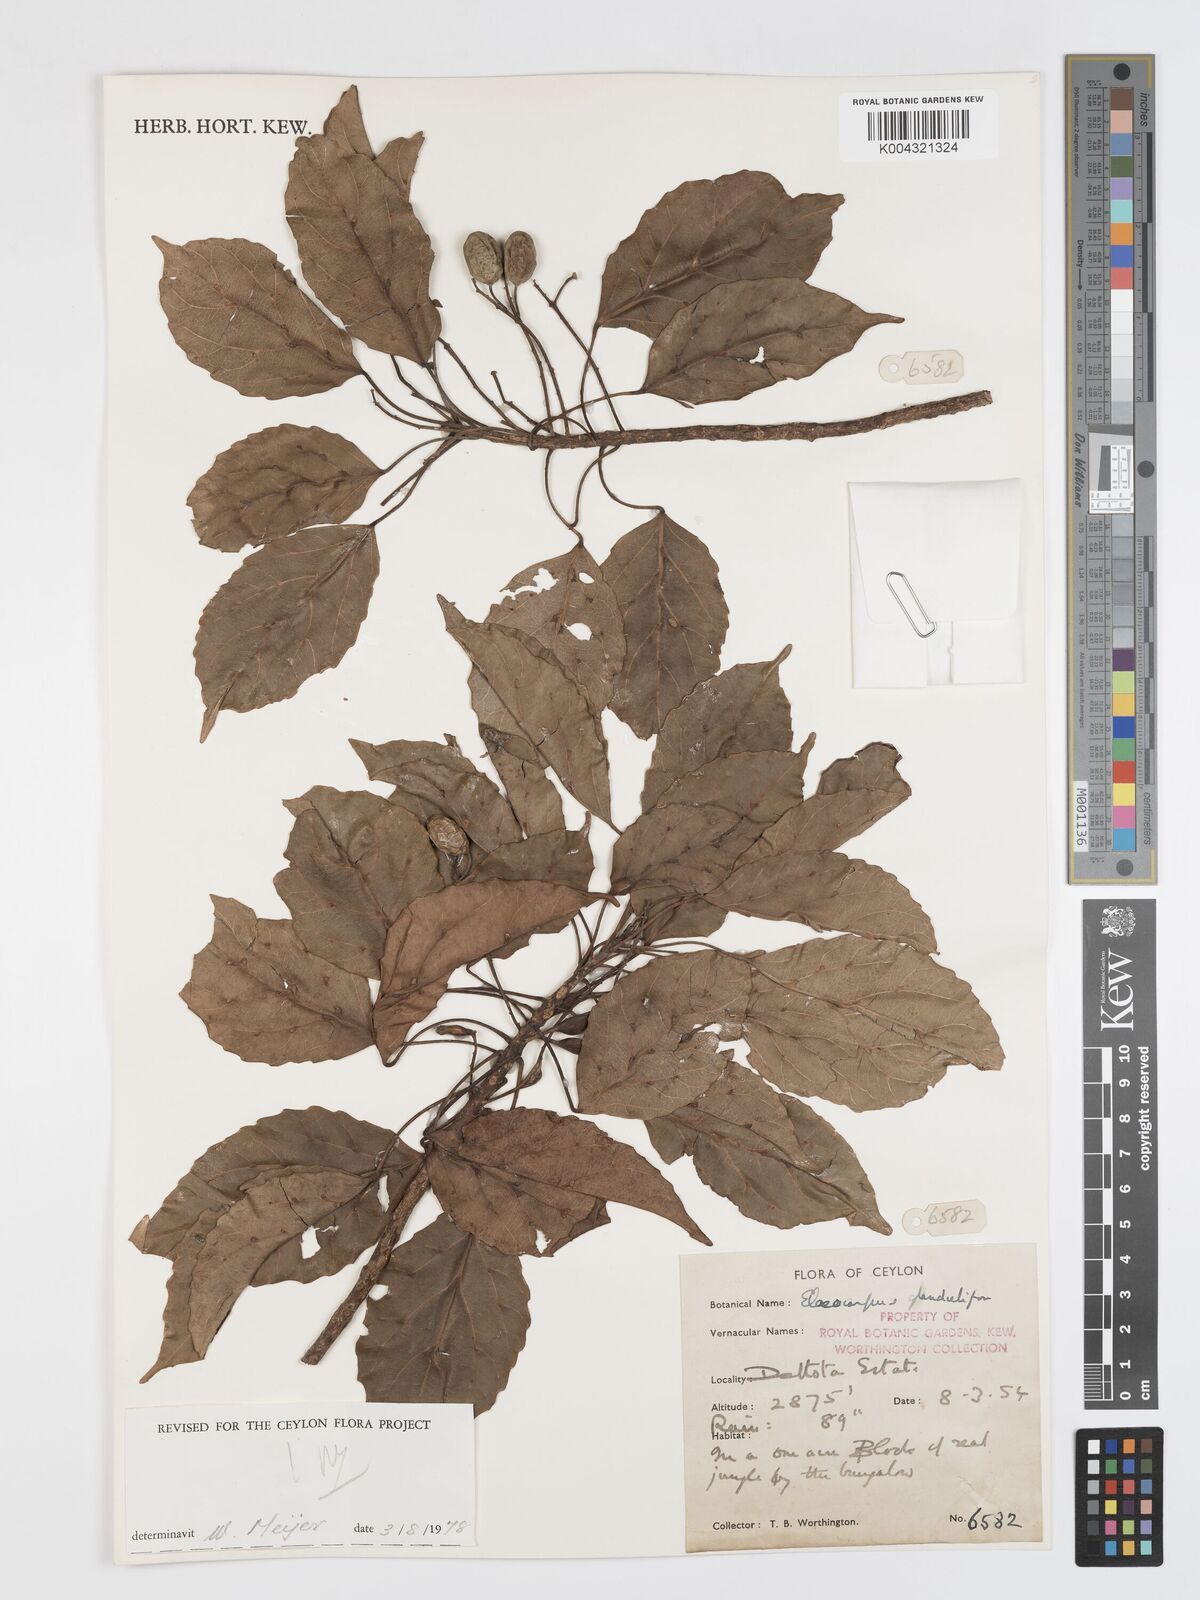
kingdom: Plantae
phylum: Tracheophyta
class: Magnoliopsida
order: Oxalidales
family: Elaeocarpaceae
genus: Elaeocarpus
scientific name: Elaeocarpus glandulifer
